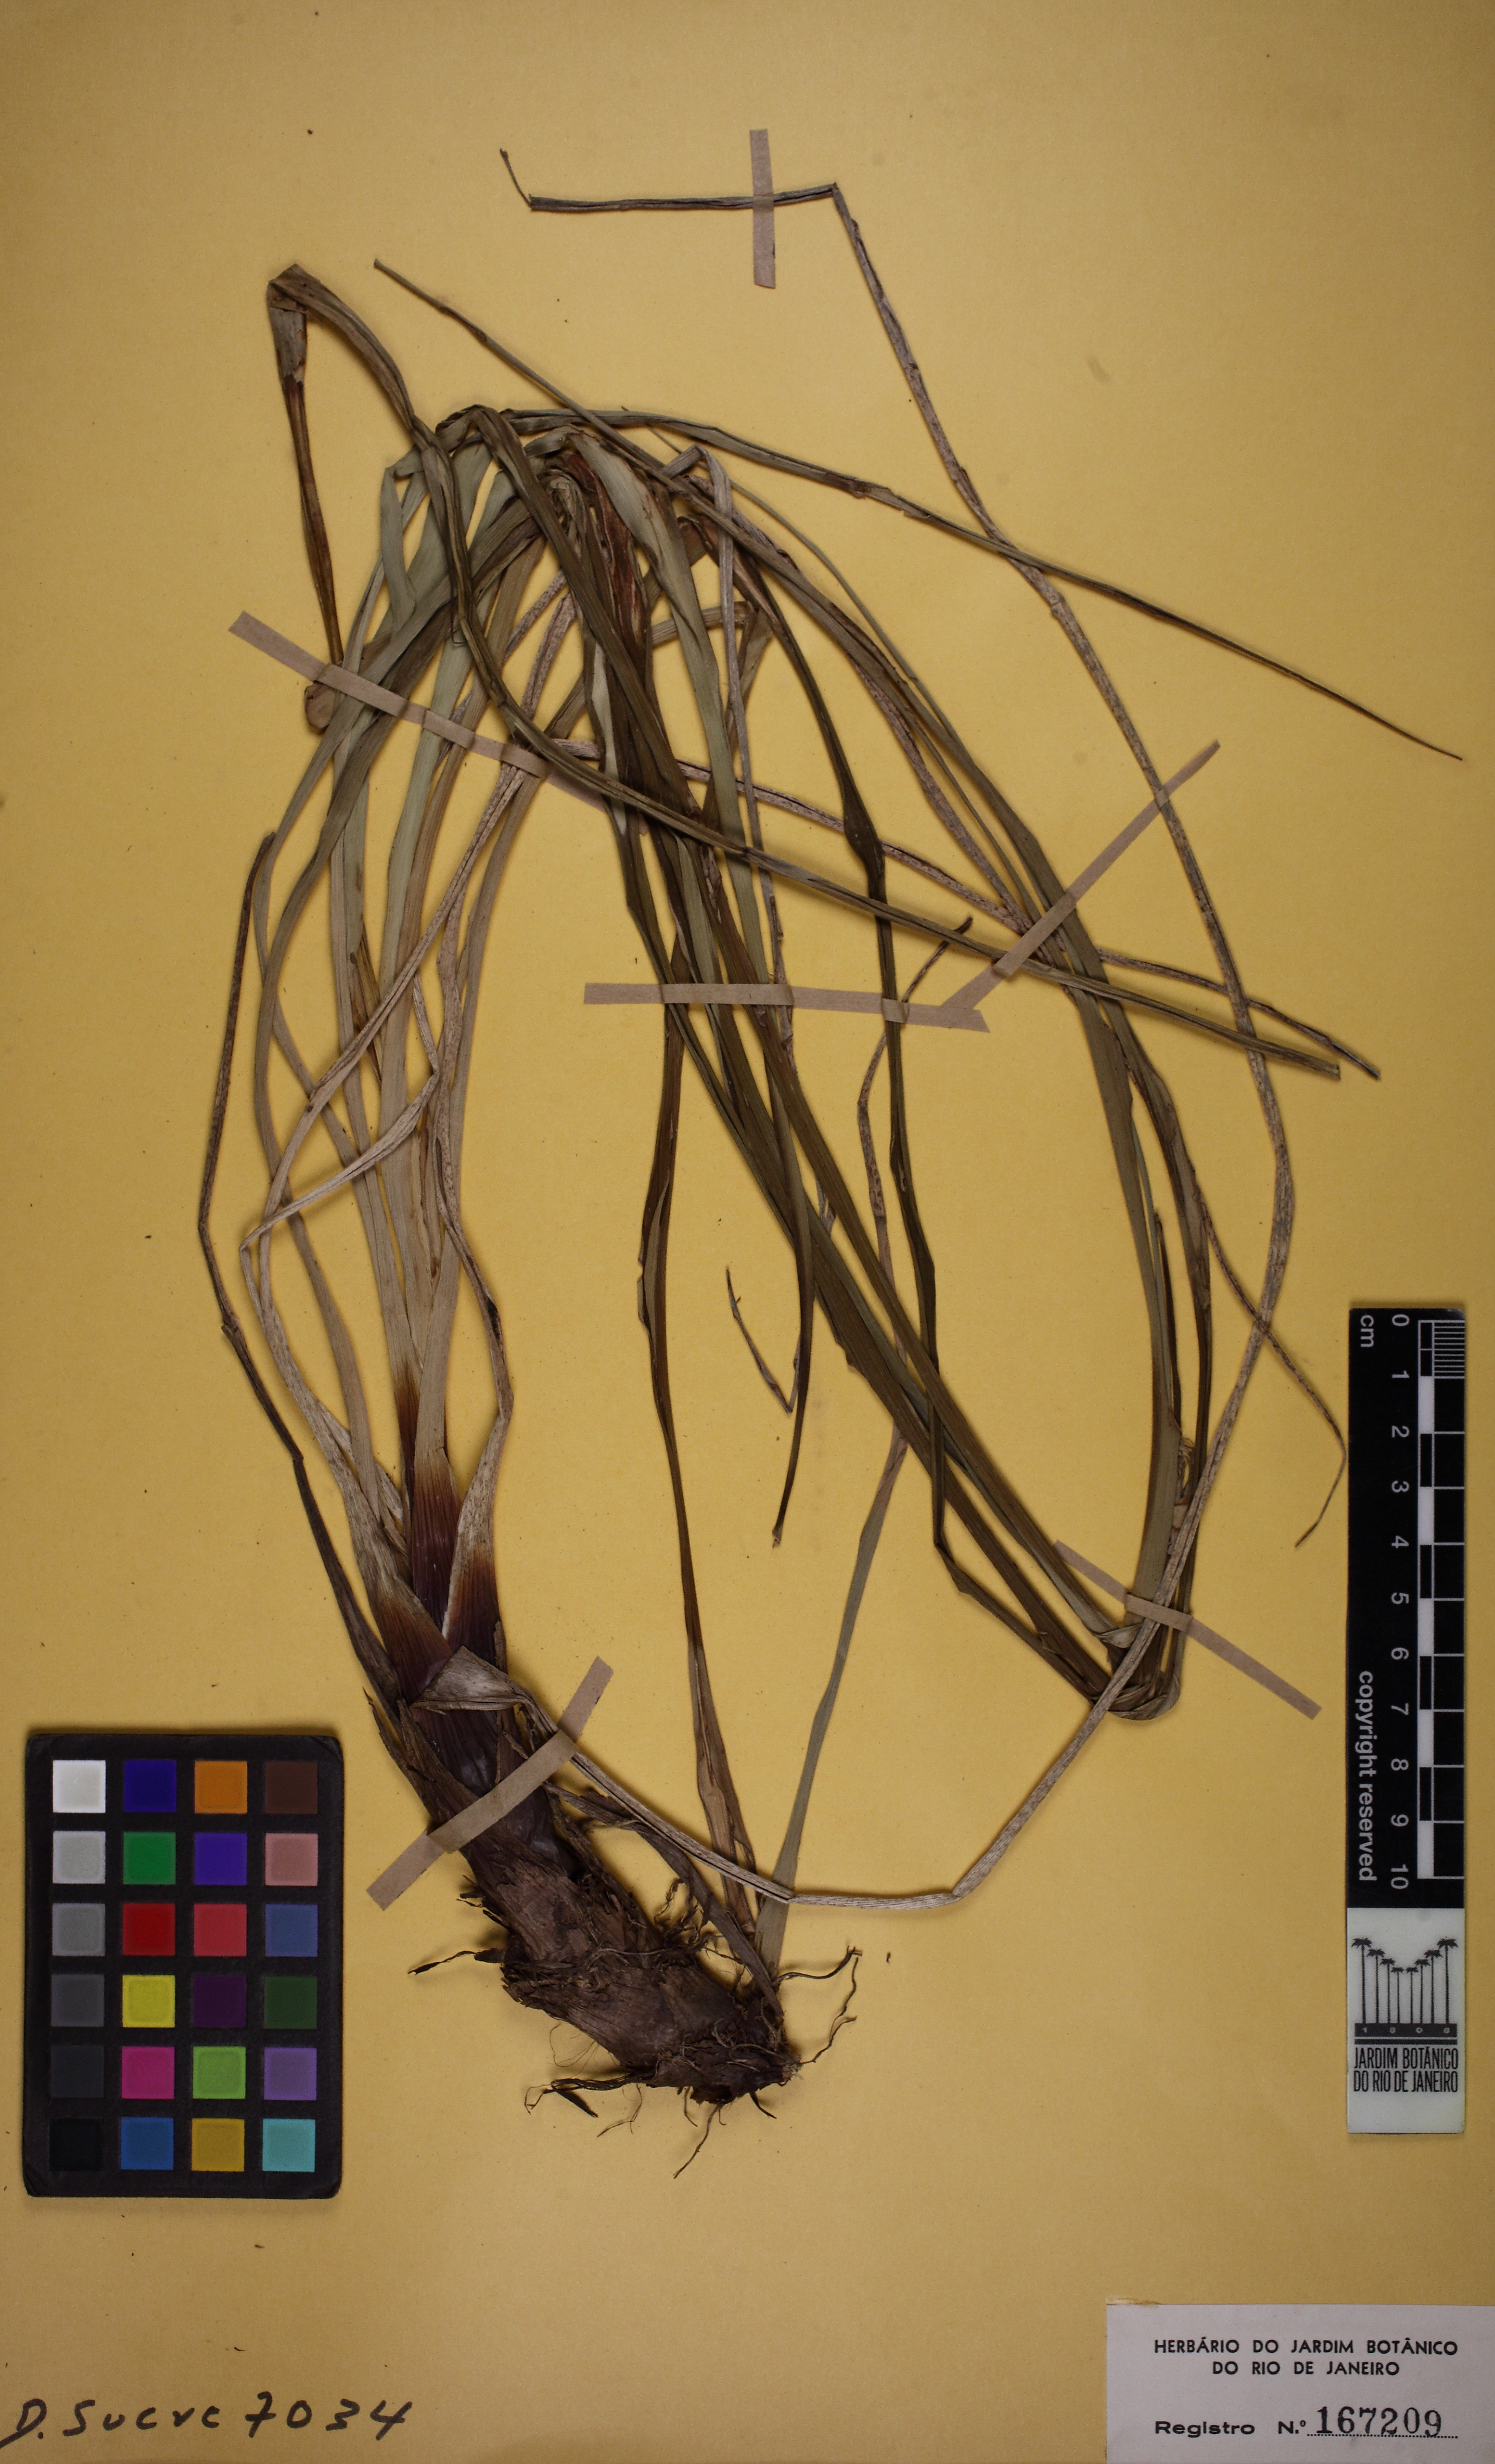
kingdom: Plantae
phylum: Tracheophyta
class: Liliopsida
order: Poales
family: Bromeliaceae
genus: Pitcairnia
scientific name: Pitcairnia albiflos
